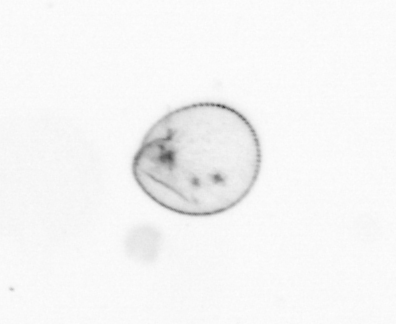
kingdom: Chromista
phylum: Myzozoa
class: Dinophyceae
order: Noctilucales
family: Noctilucaceae
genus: Noctiluca
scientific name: Noctiluca scintillans
